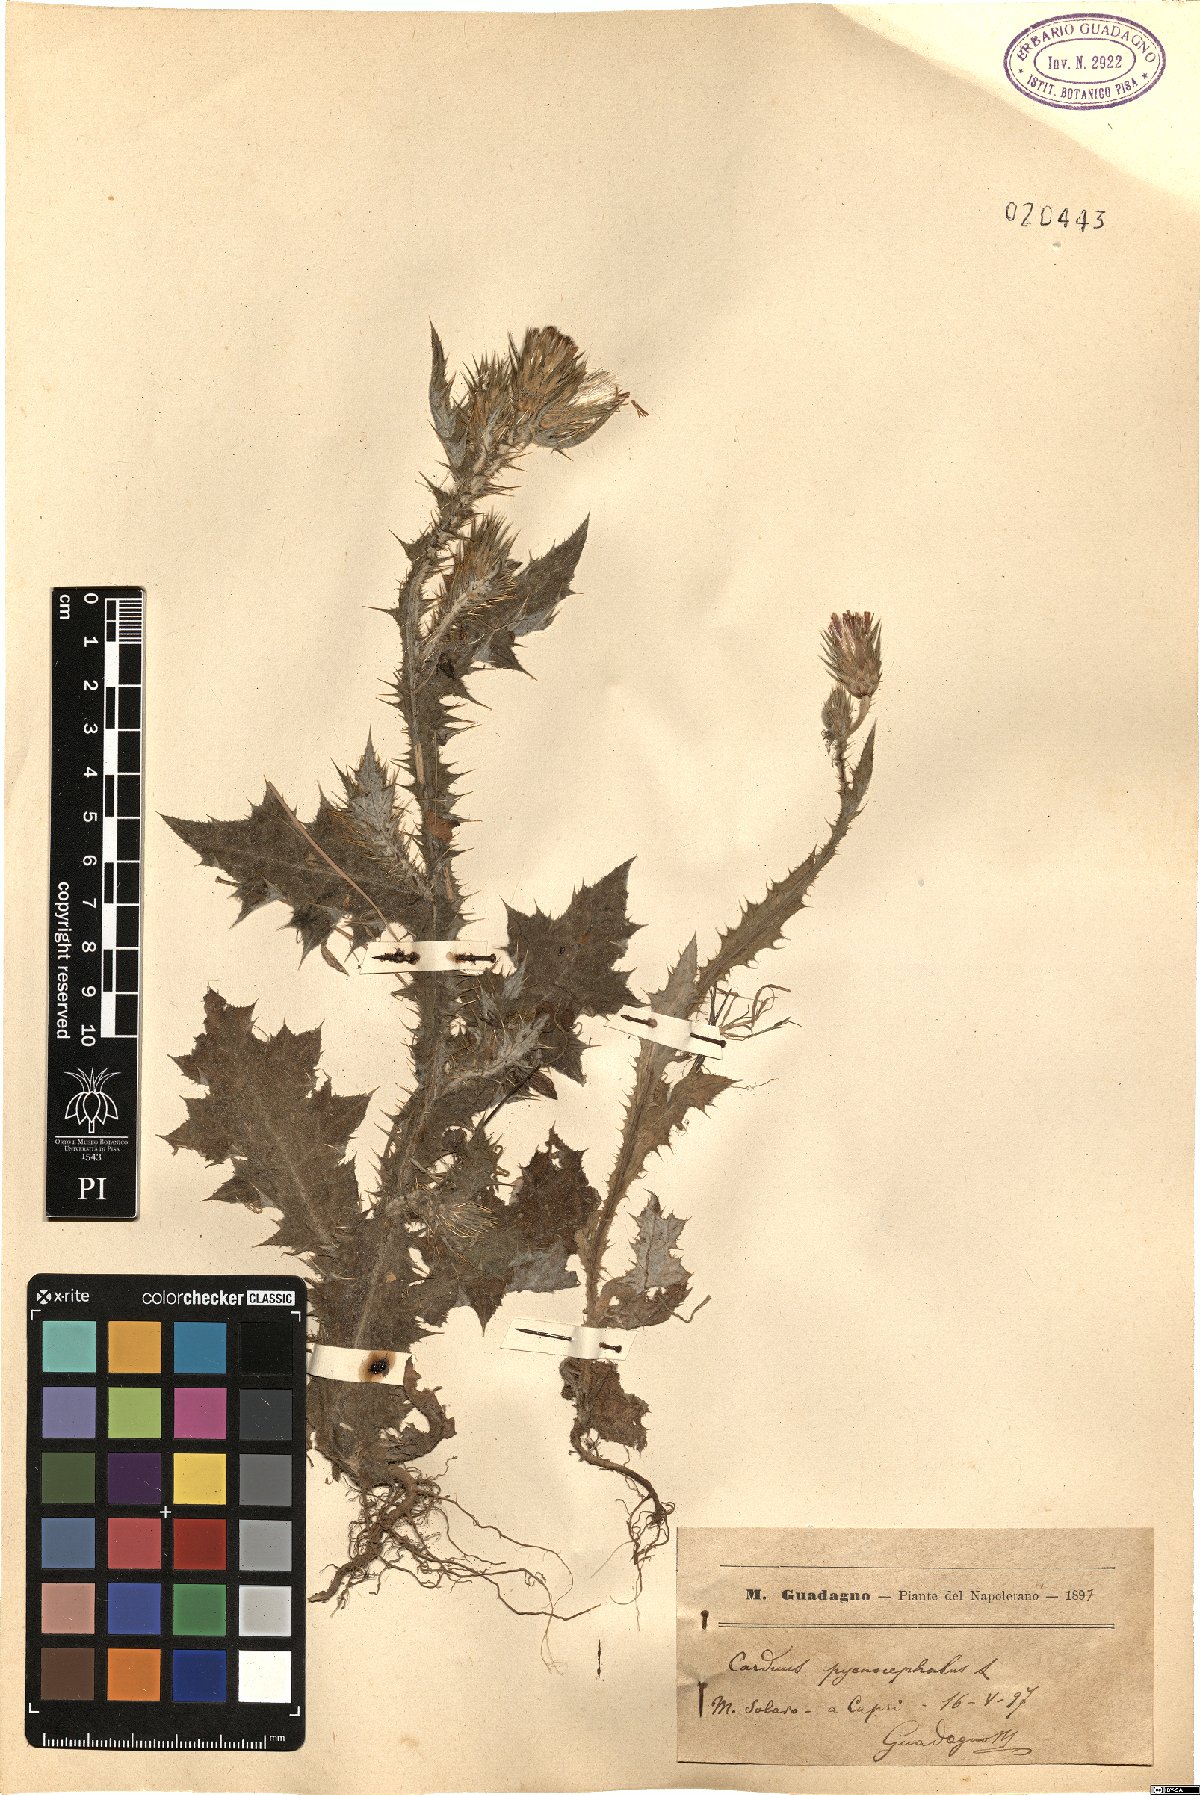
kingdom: Plantae
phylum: Tracheophyta
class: Magnoliopsida
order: Asterales
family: Asteraceae
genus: Carduus
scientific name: Carduus pycnocephalus
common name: Plymouth thistle
